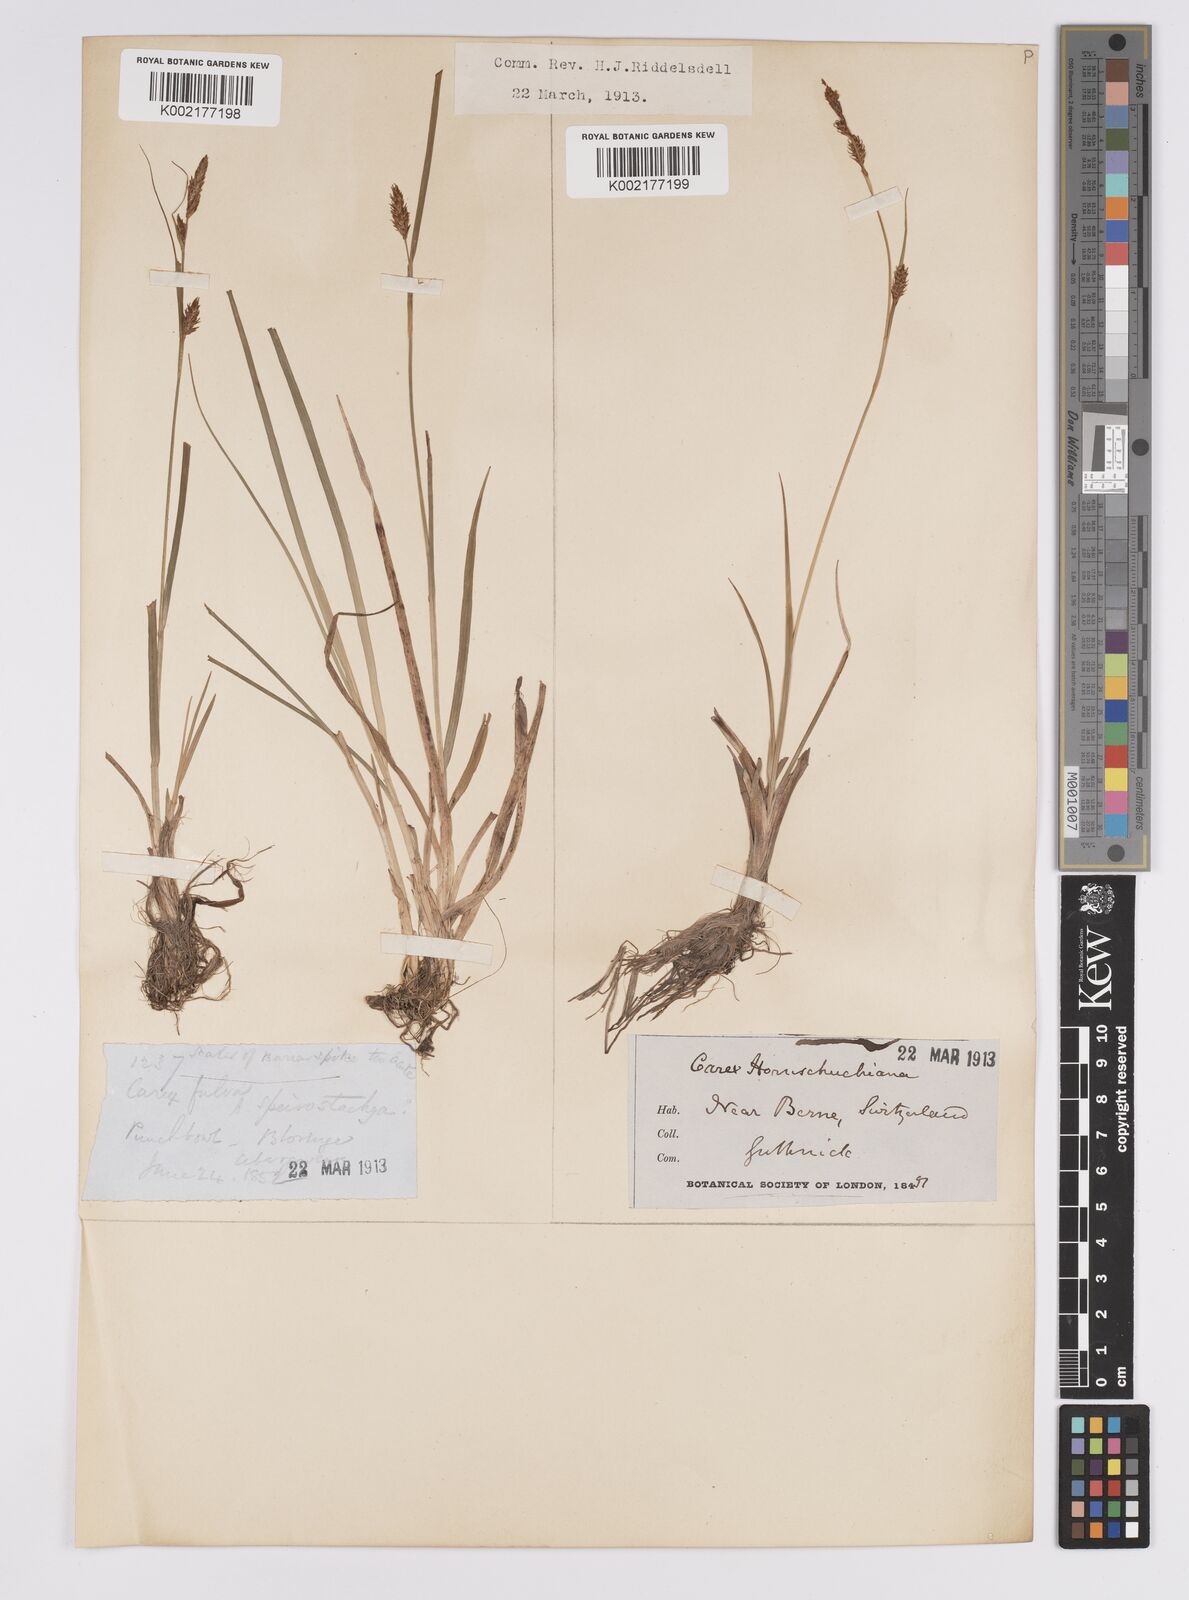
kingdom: Plantae
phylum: Tracheophyta
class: Liliopsida
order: Poales
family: Cyperaceae
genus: Carex
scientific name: Carex hostiana
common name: Tawny sedge
